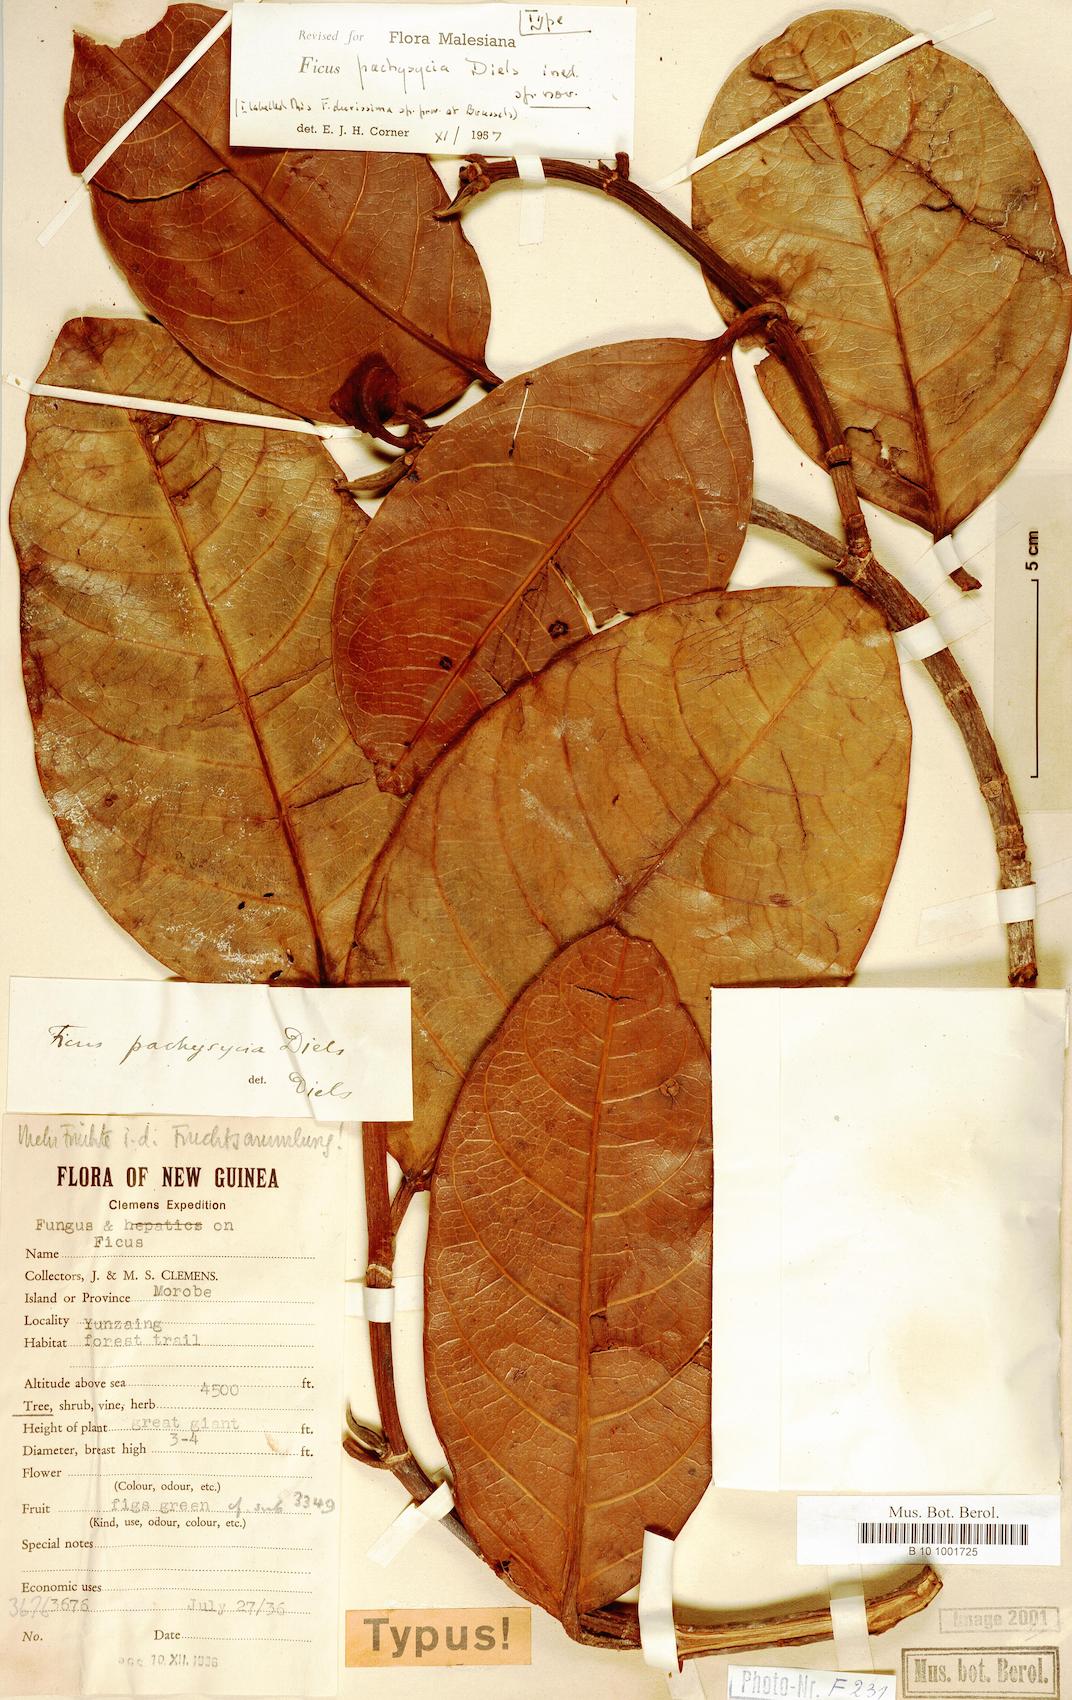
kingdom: Plantae
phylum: Tracheophyta
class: Magnoliopsida
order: Rosales
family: Moraceae
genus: Ficus
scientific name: Ficus pachysycia
